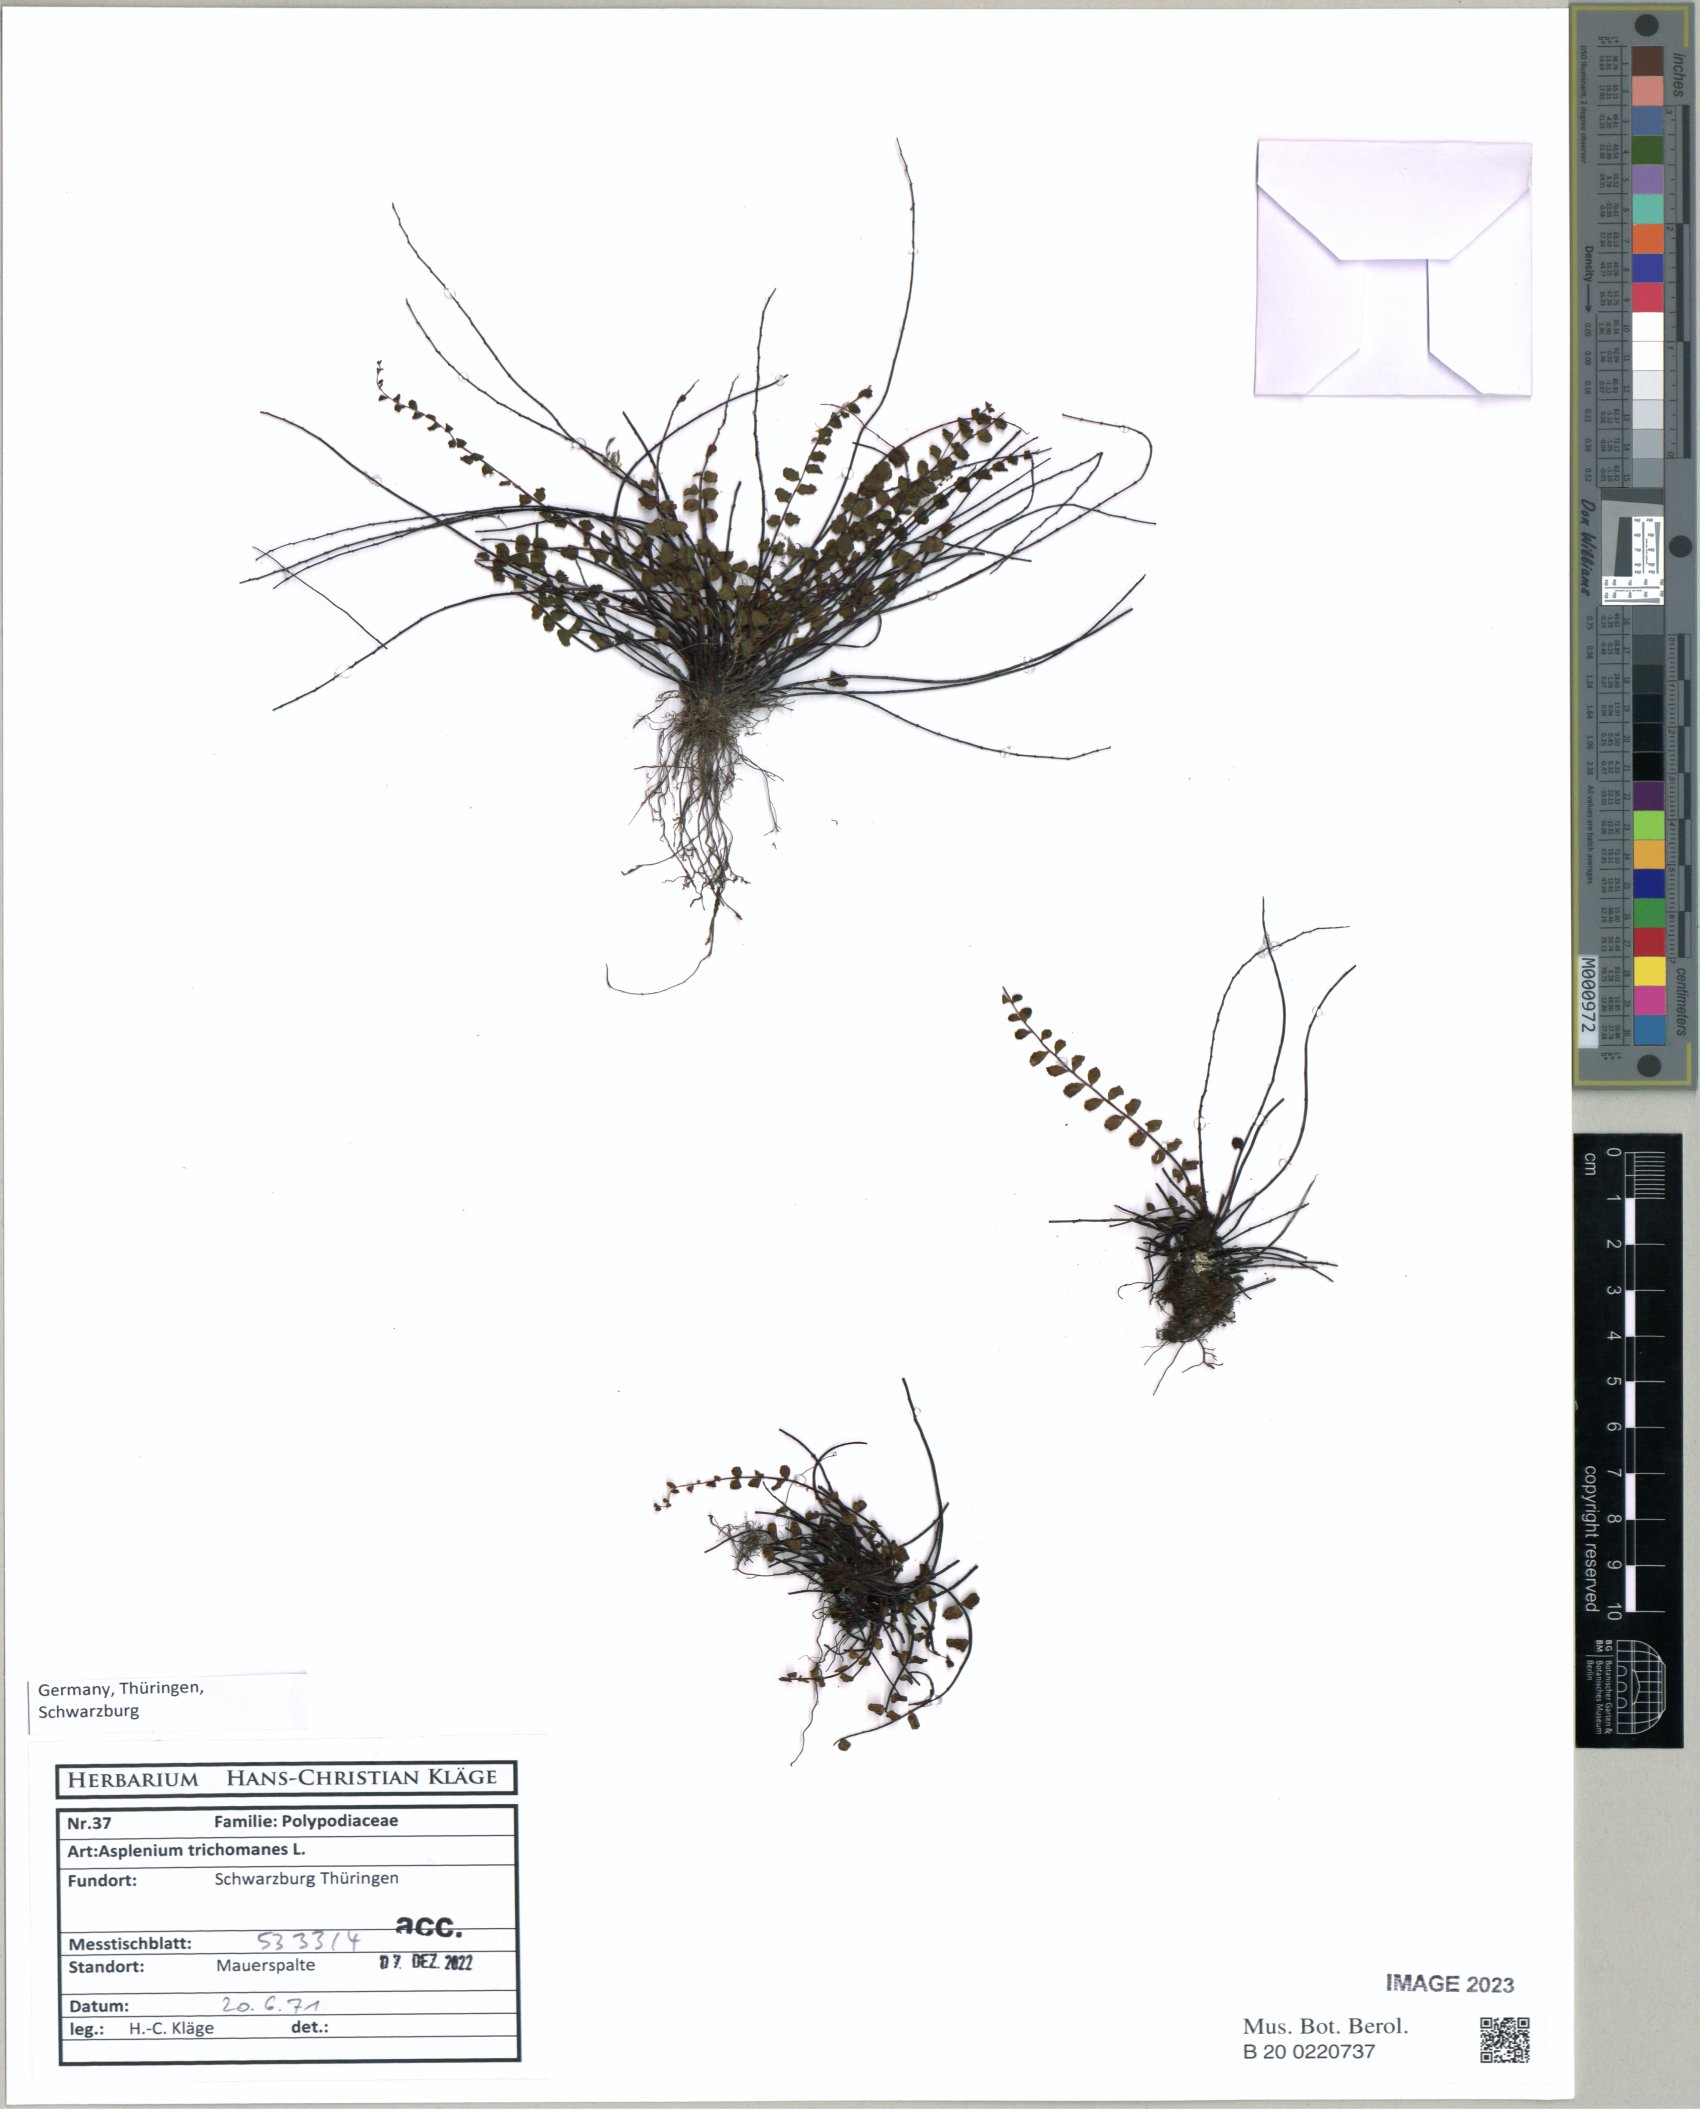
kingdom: Plantae
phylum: Tracheophyta
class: Polypodiopsida
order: Polypodiales
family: Aspleniaceae
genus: Asplenium
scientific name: Asplenium trichomanes
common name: Maidenhair spleenwort
